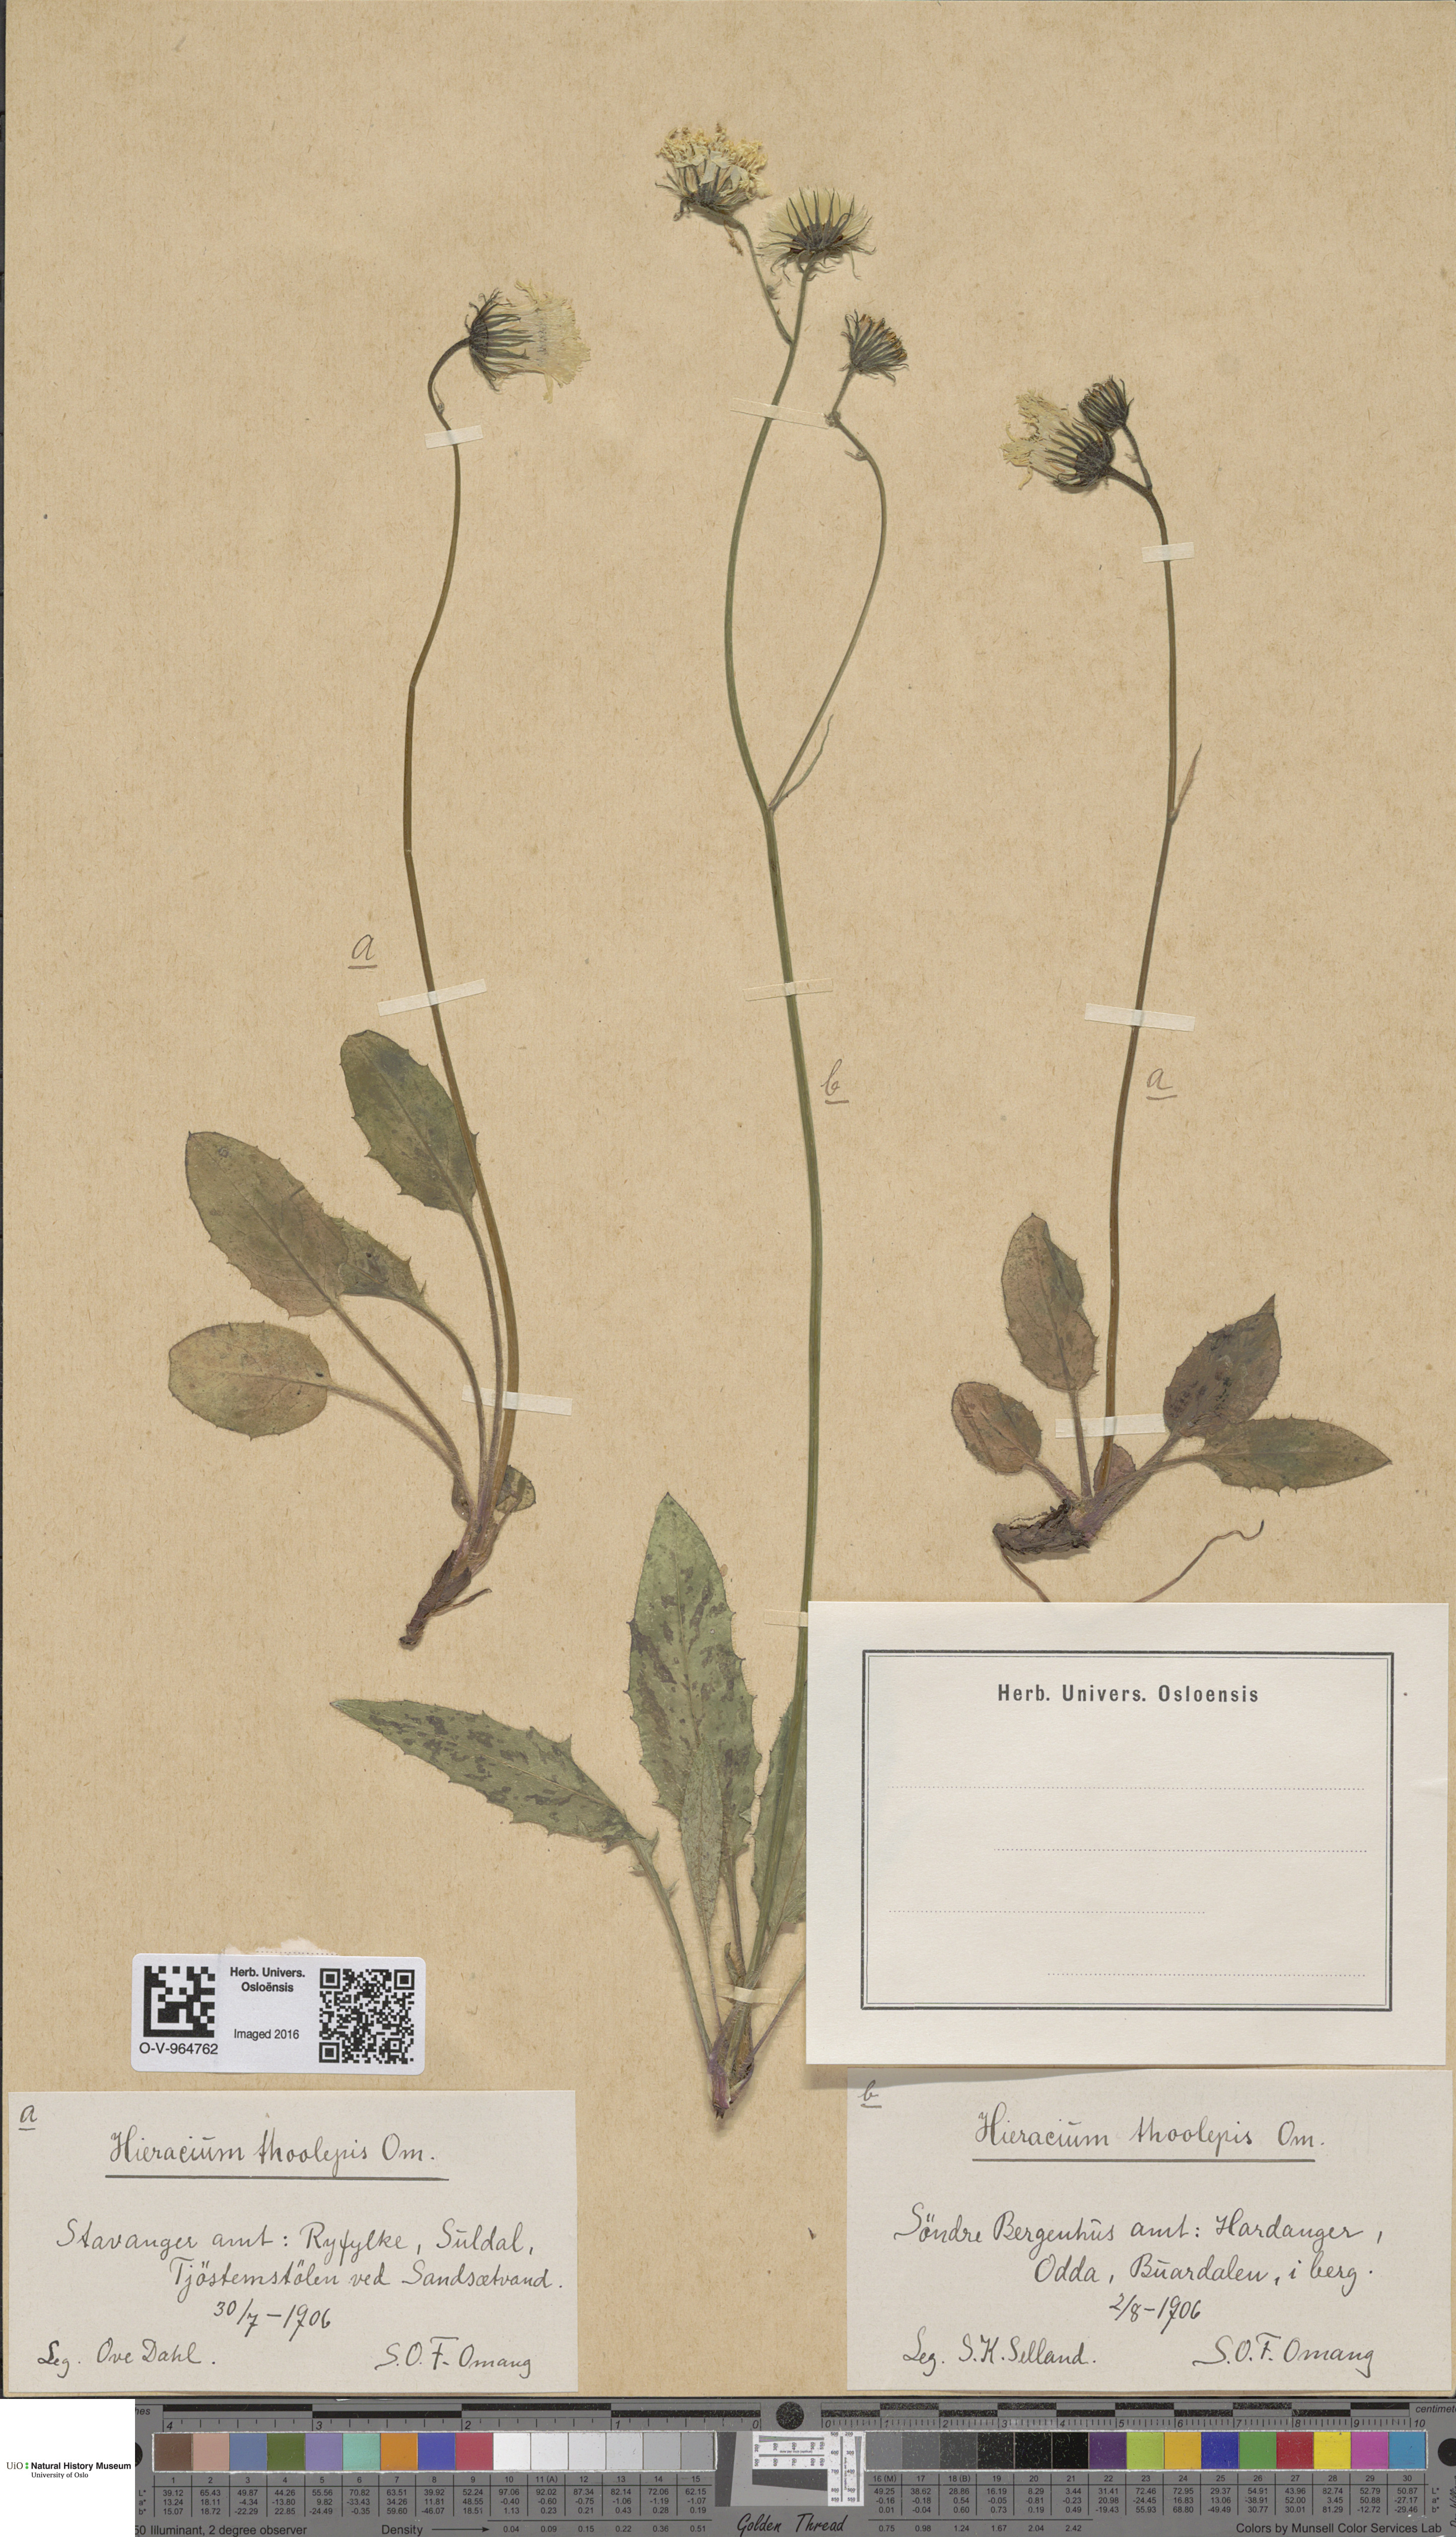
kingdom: Plantae
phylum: Tracheophyta
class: Magnoliopsida
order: Asterales
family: Asteraceae
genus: Hieracium
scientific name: Hieracium sommerfeltii
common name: Sommerfelt's hawkweed
